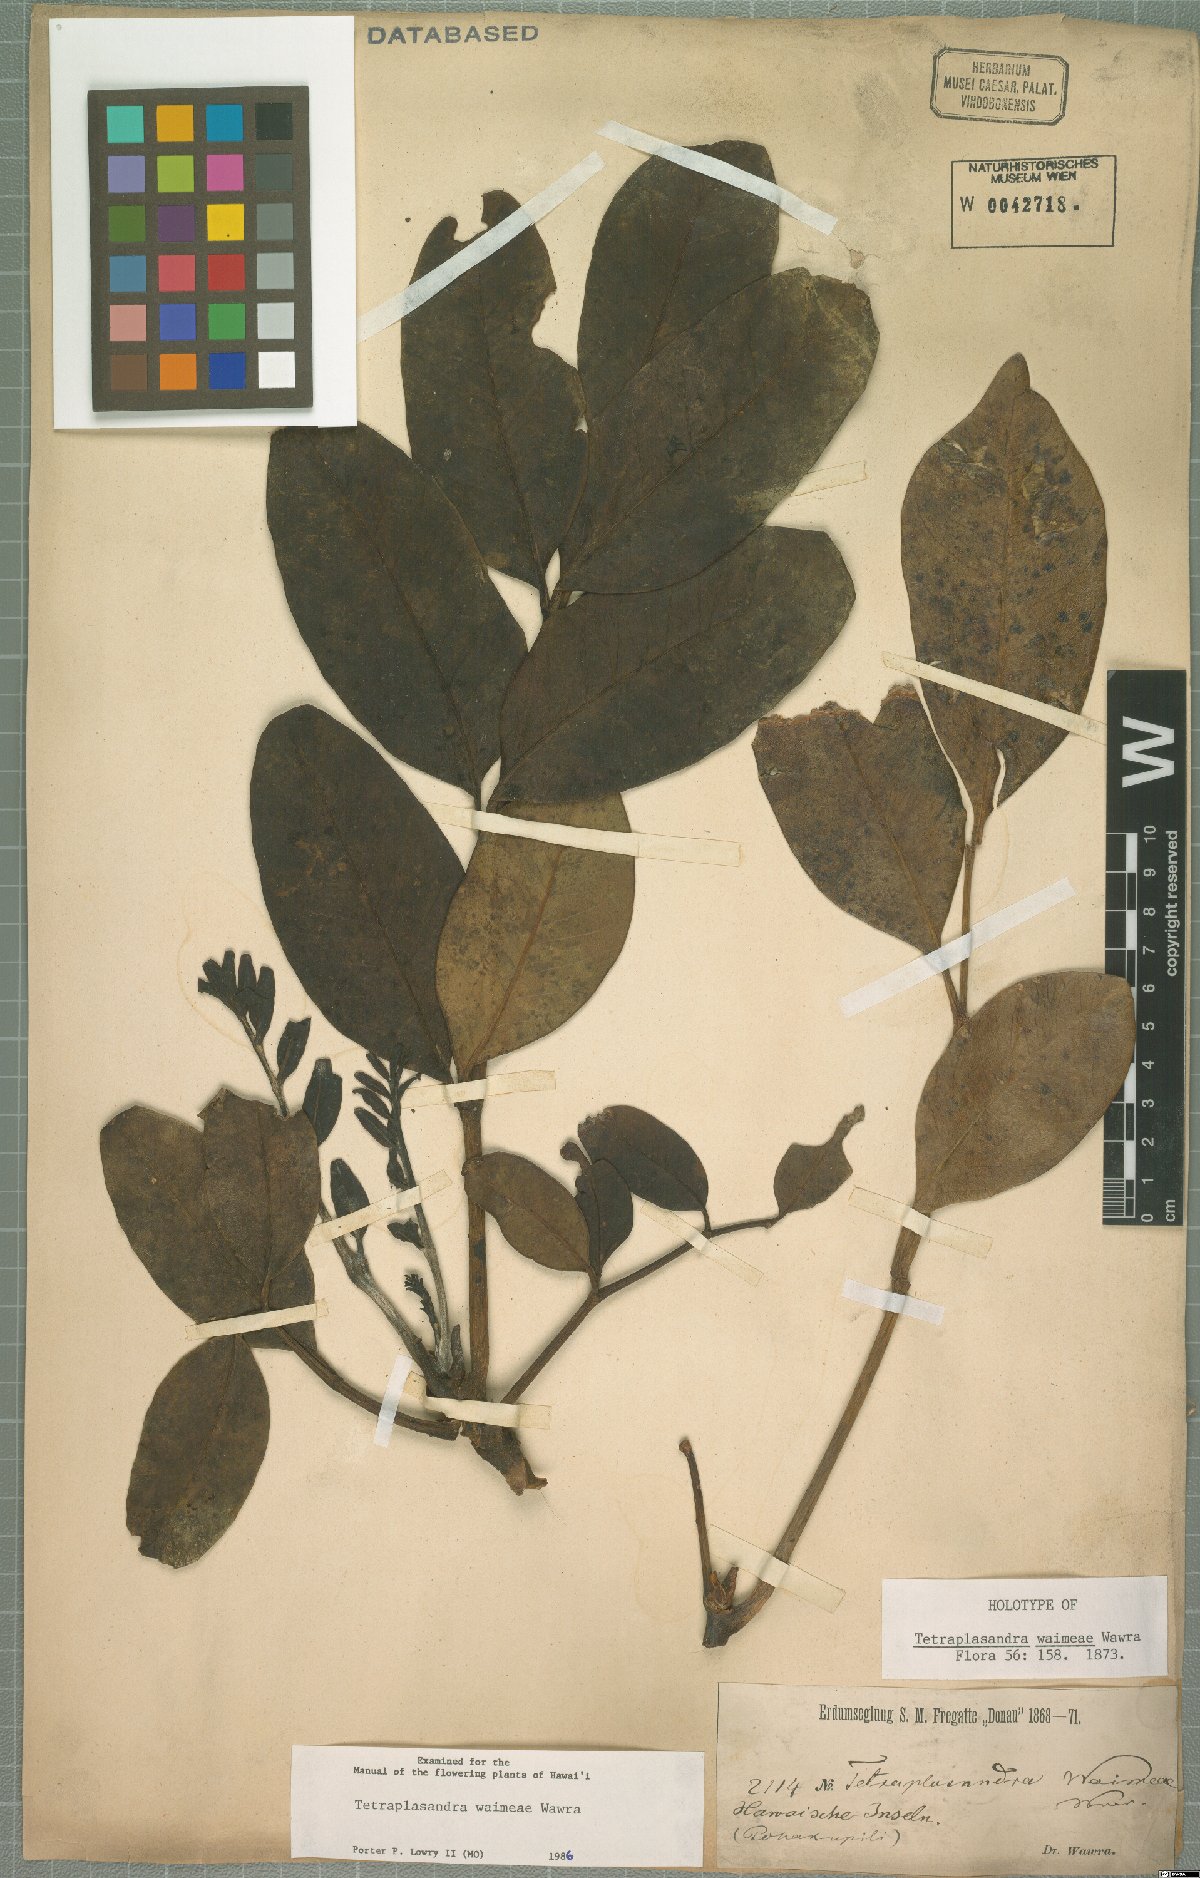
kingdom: Plantae
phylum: Tracheophyta
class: Magnoliopsida
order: Apiales
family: Araliaceae
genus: Polyscias
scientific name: Polyscias waimeae
